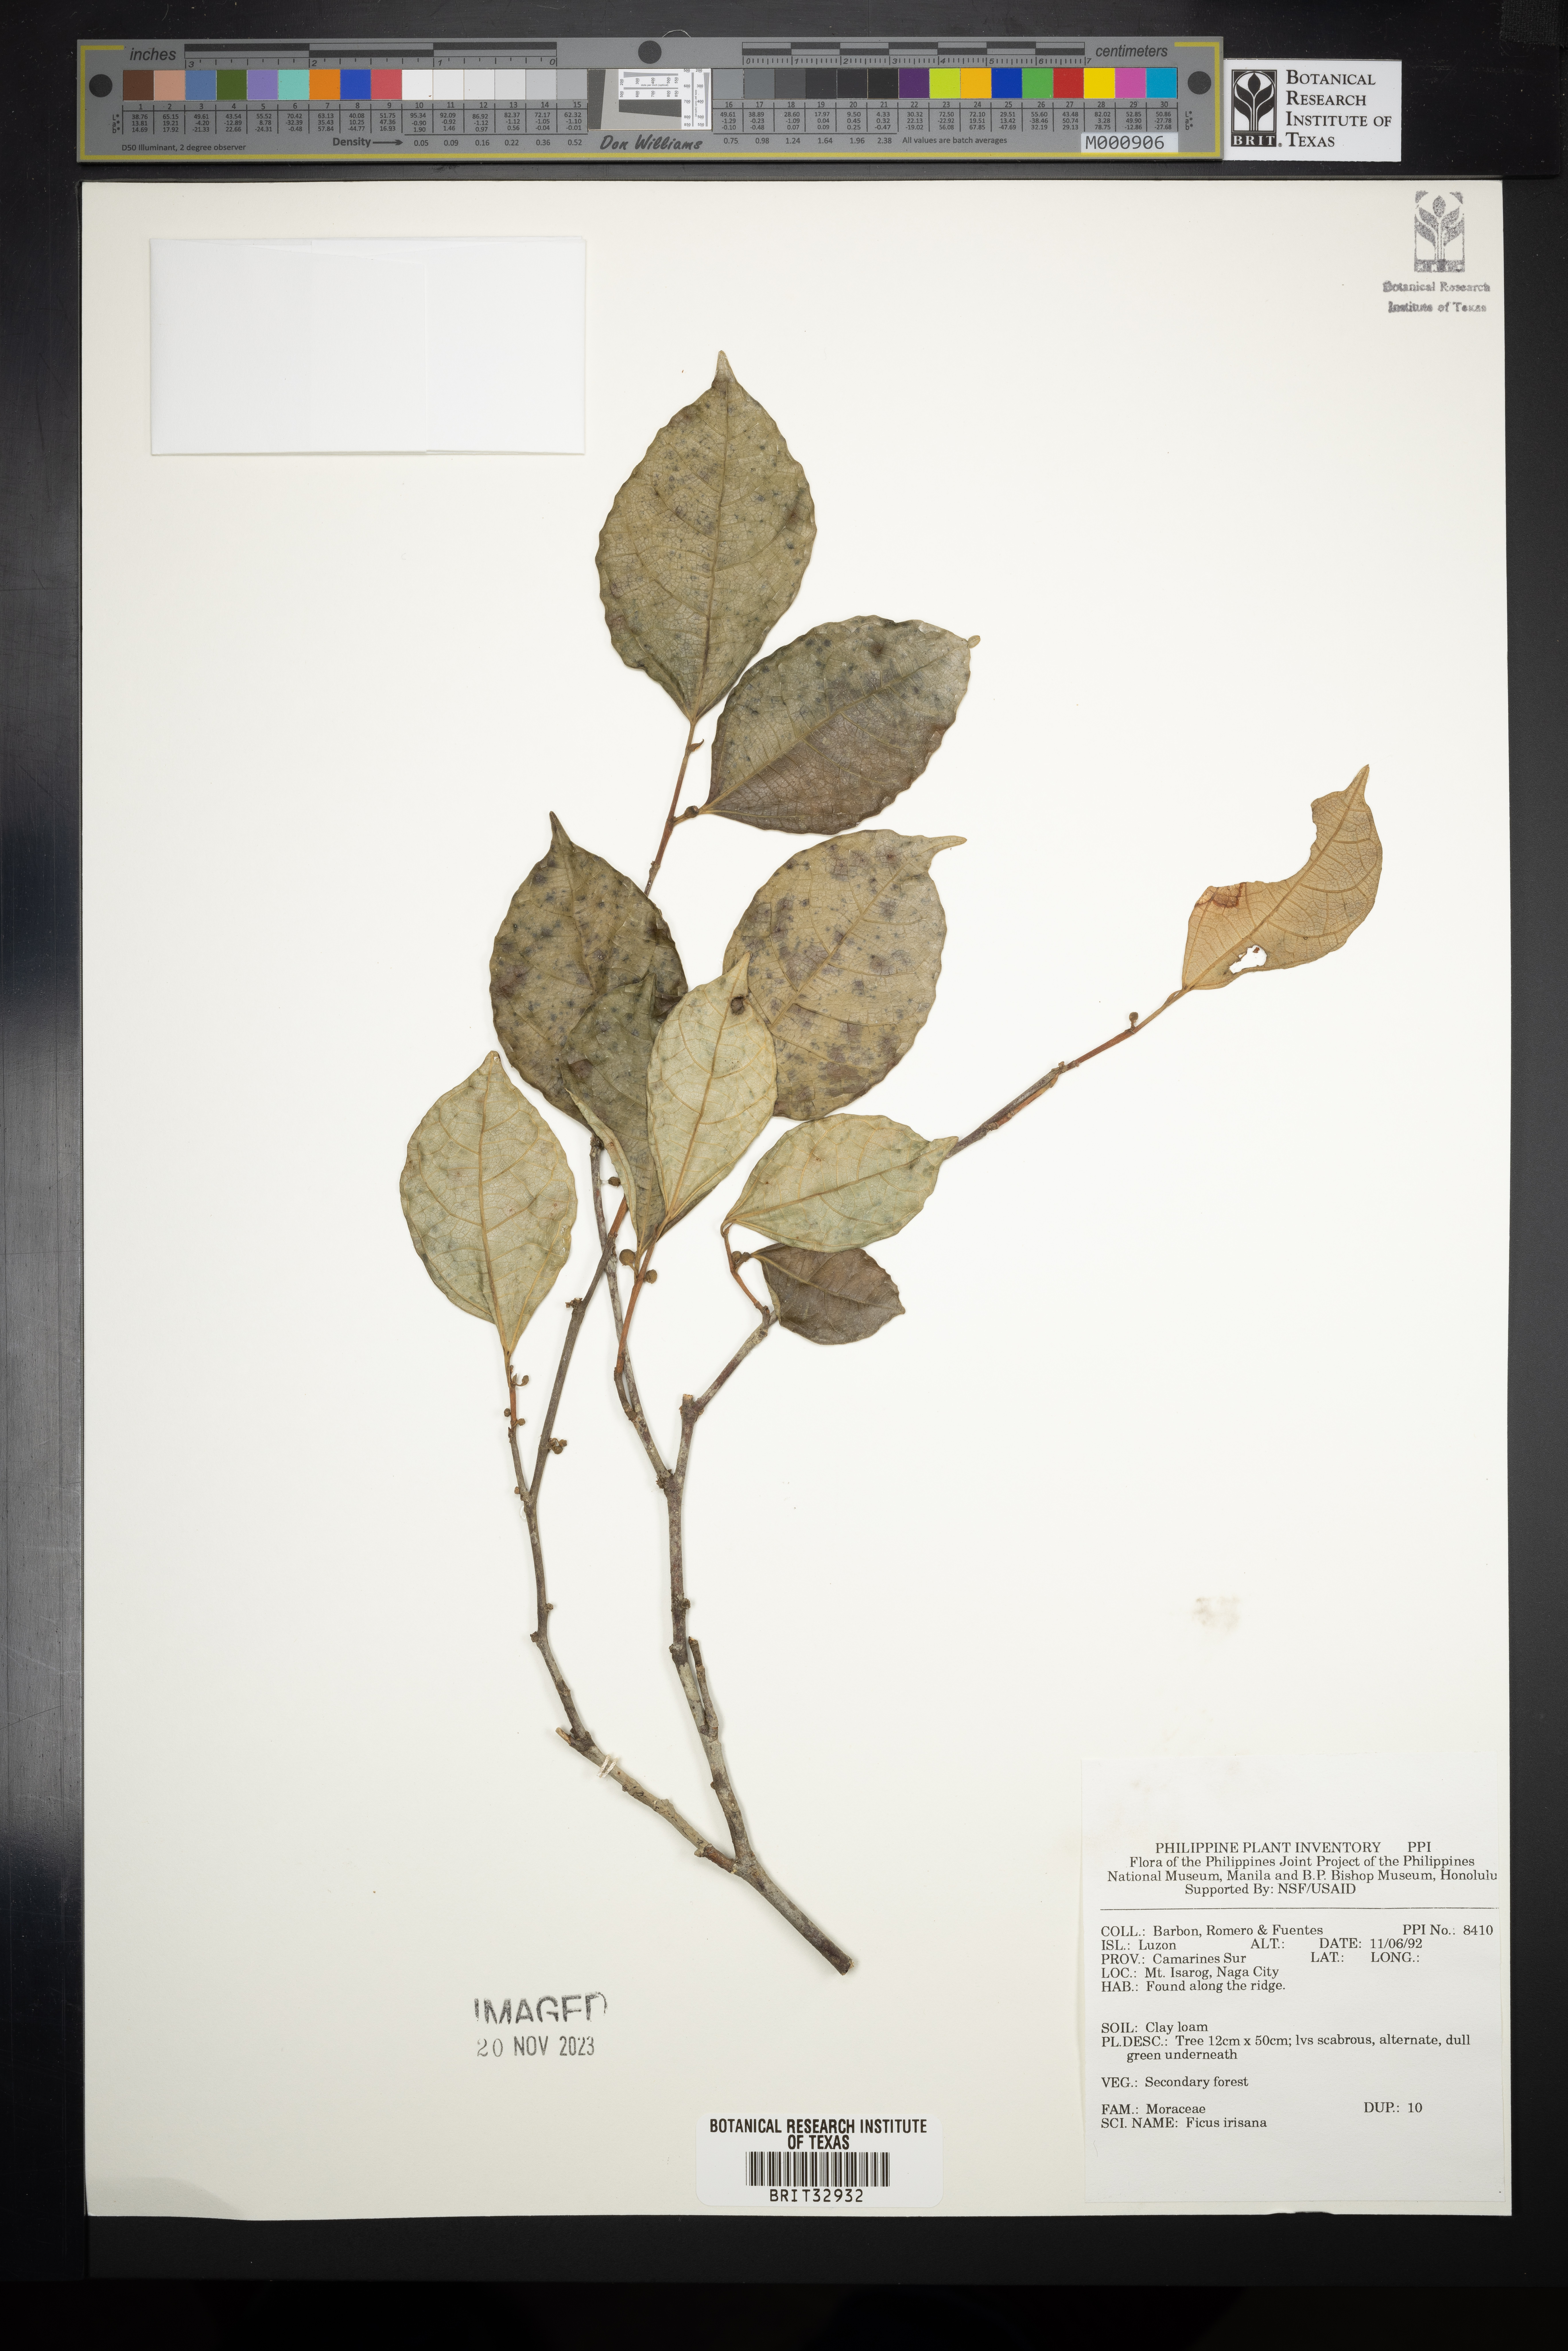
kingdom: Plantae
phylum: Tracheophyta
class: Magnoliopsida
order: Rosales
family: Moraceae
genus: Ficus
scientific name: Ficus ampelos
